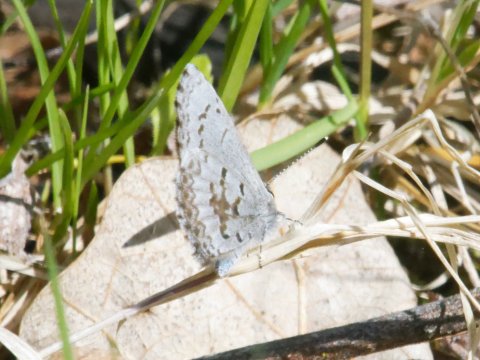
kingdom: Animalia
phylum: Arthropoda
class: Insecta
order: Lepidoptera
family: Lycaenidae
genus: Celastrina
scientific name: Celastrina lucia
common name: Northern Spring Azure
